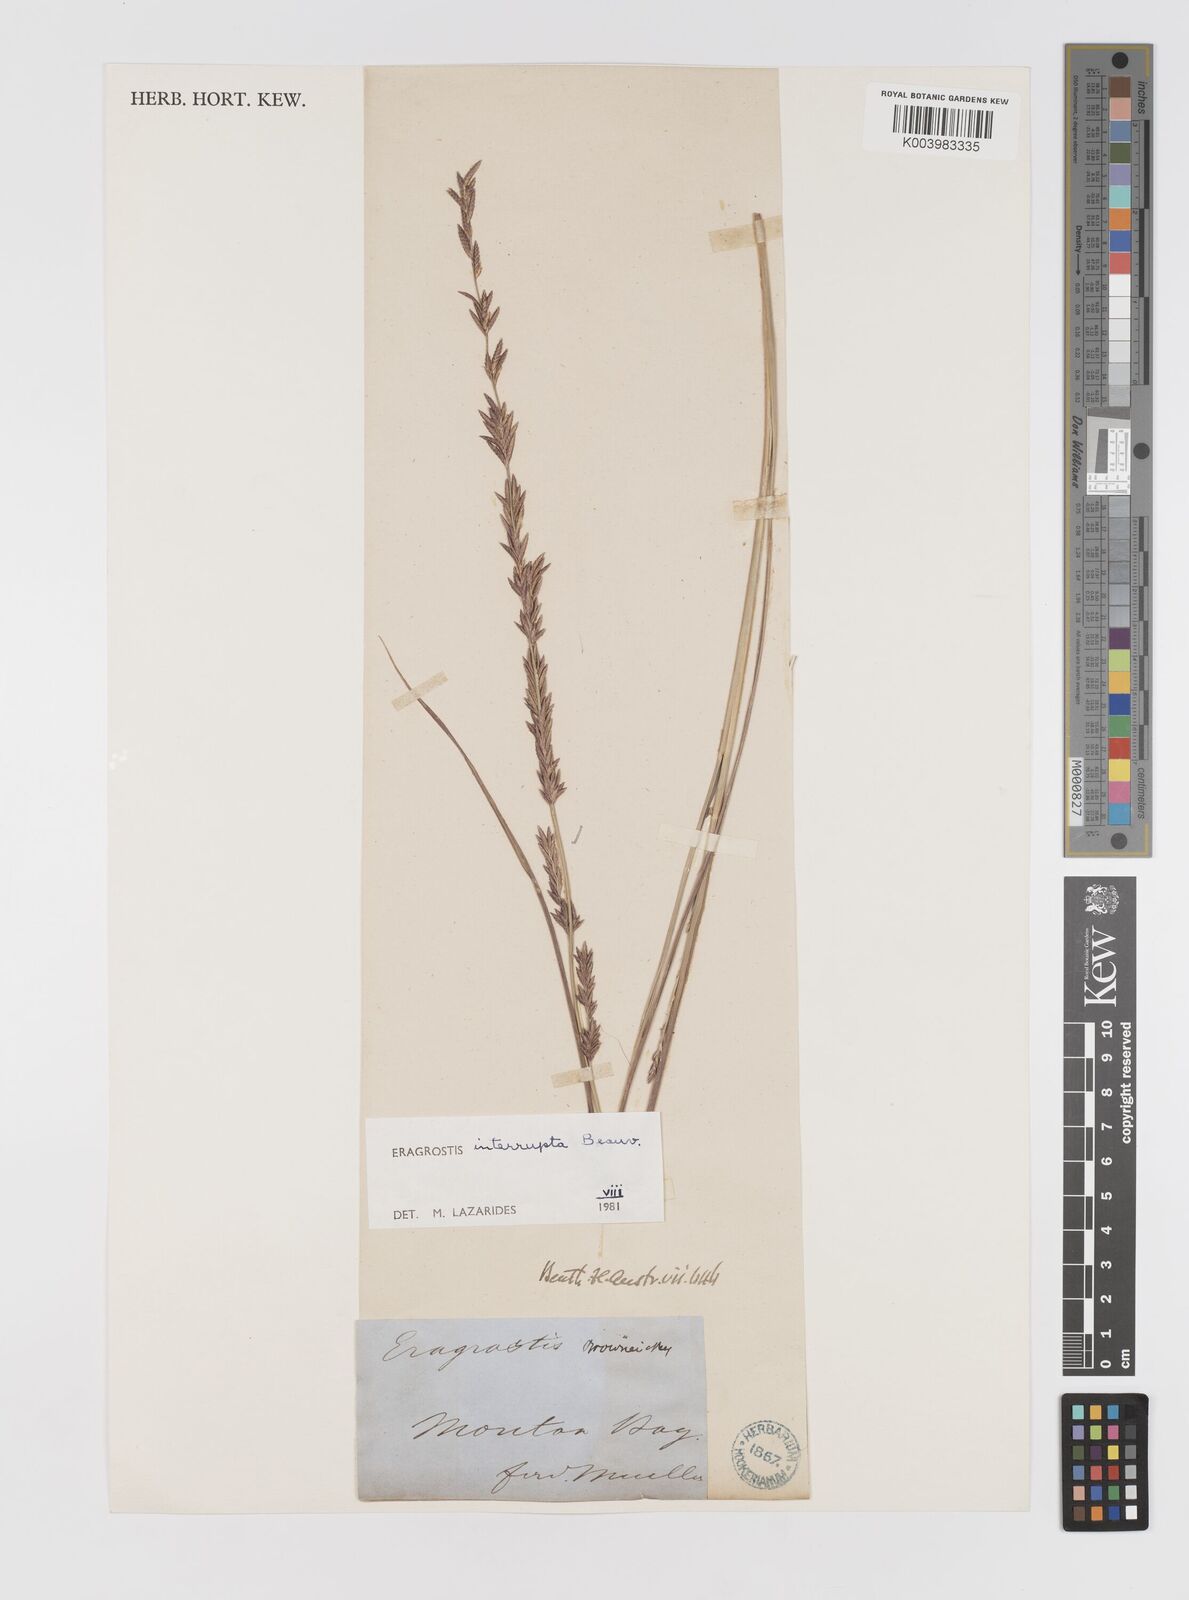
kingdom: Plantae
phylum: Tracheophyta
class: Liliopsida
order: Poales
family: Poaceae
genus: Eragrostis
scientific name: Eragrostis interrupta
